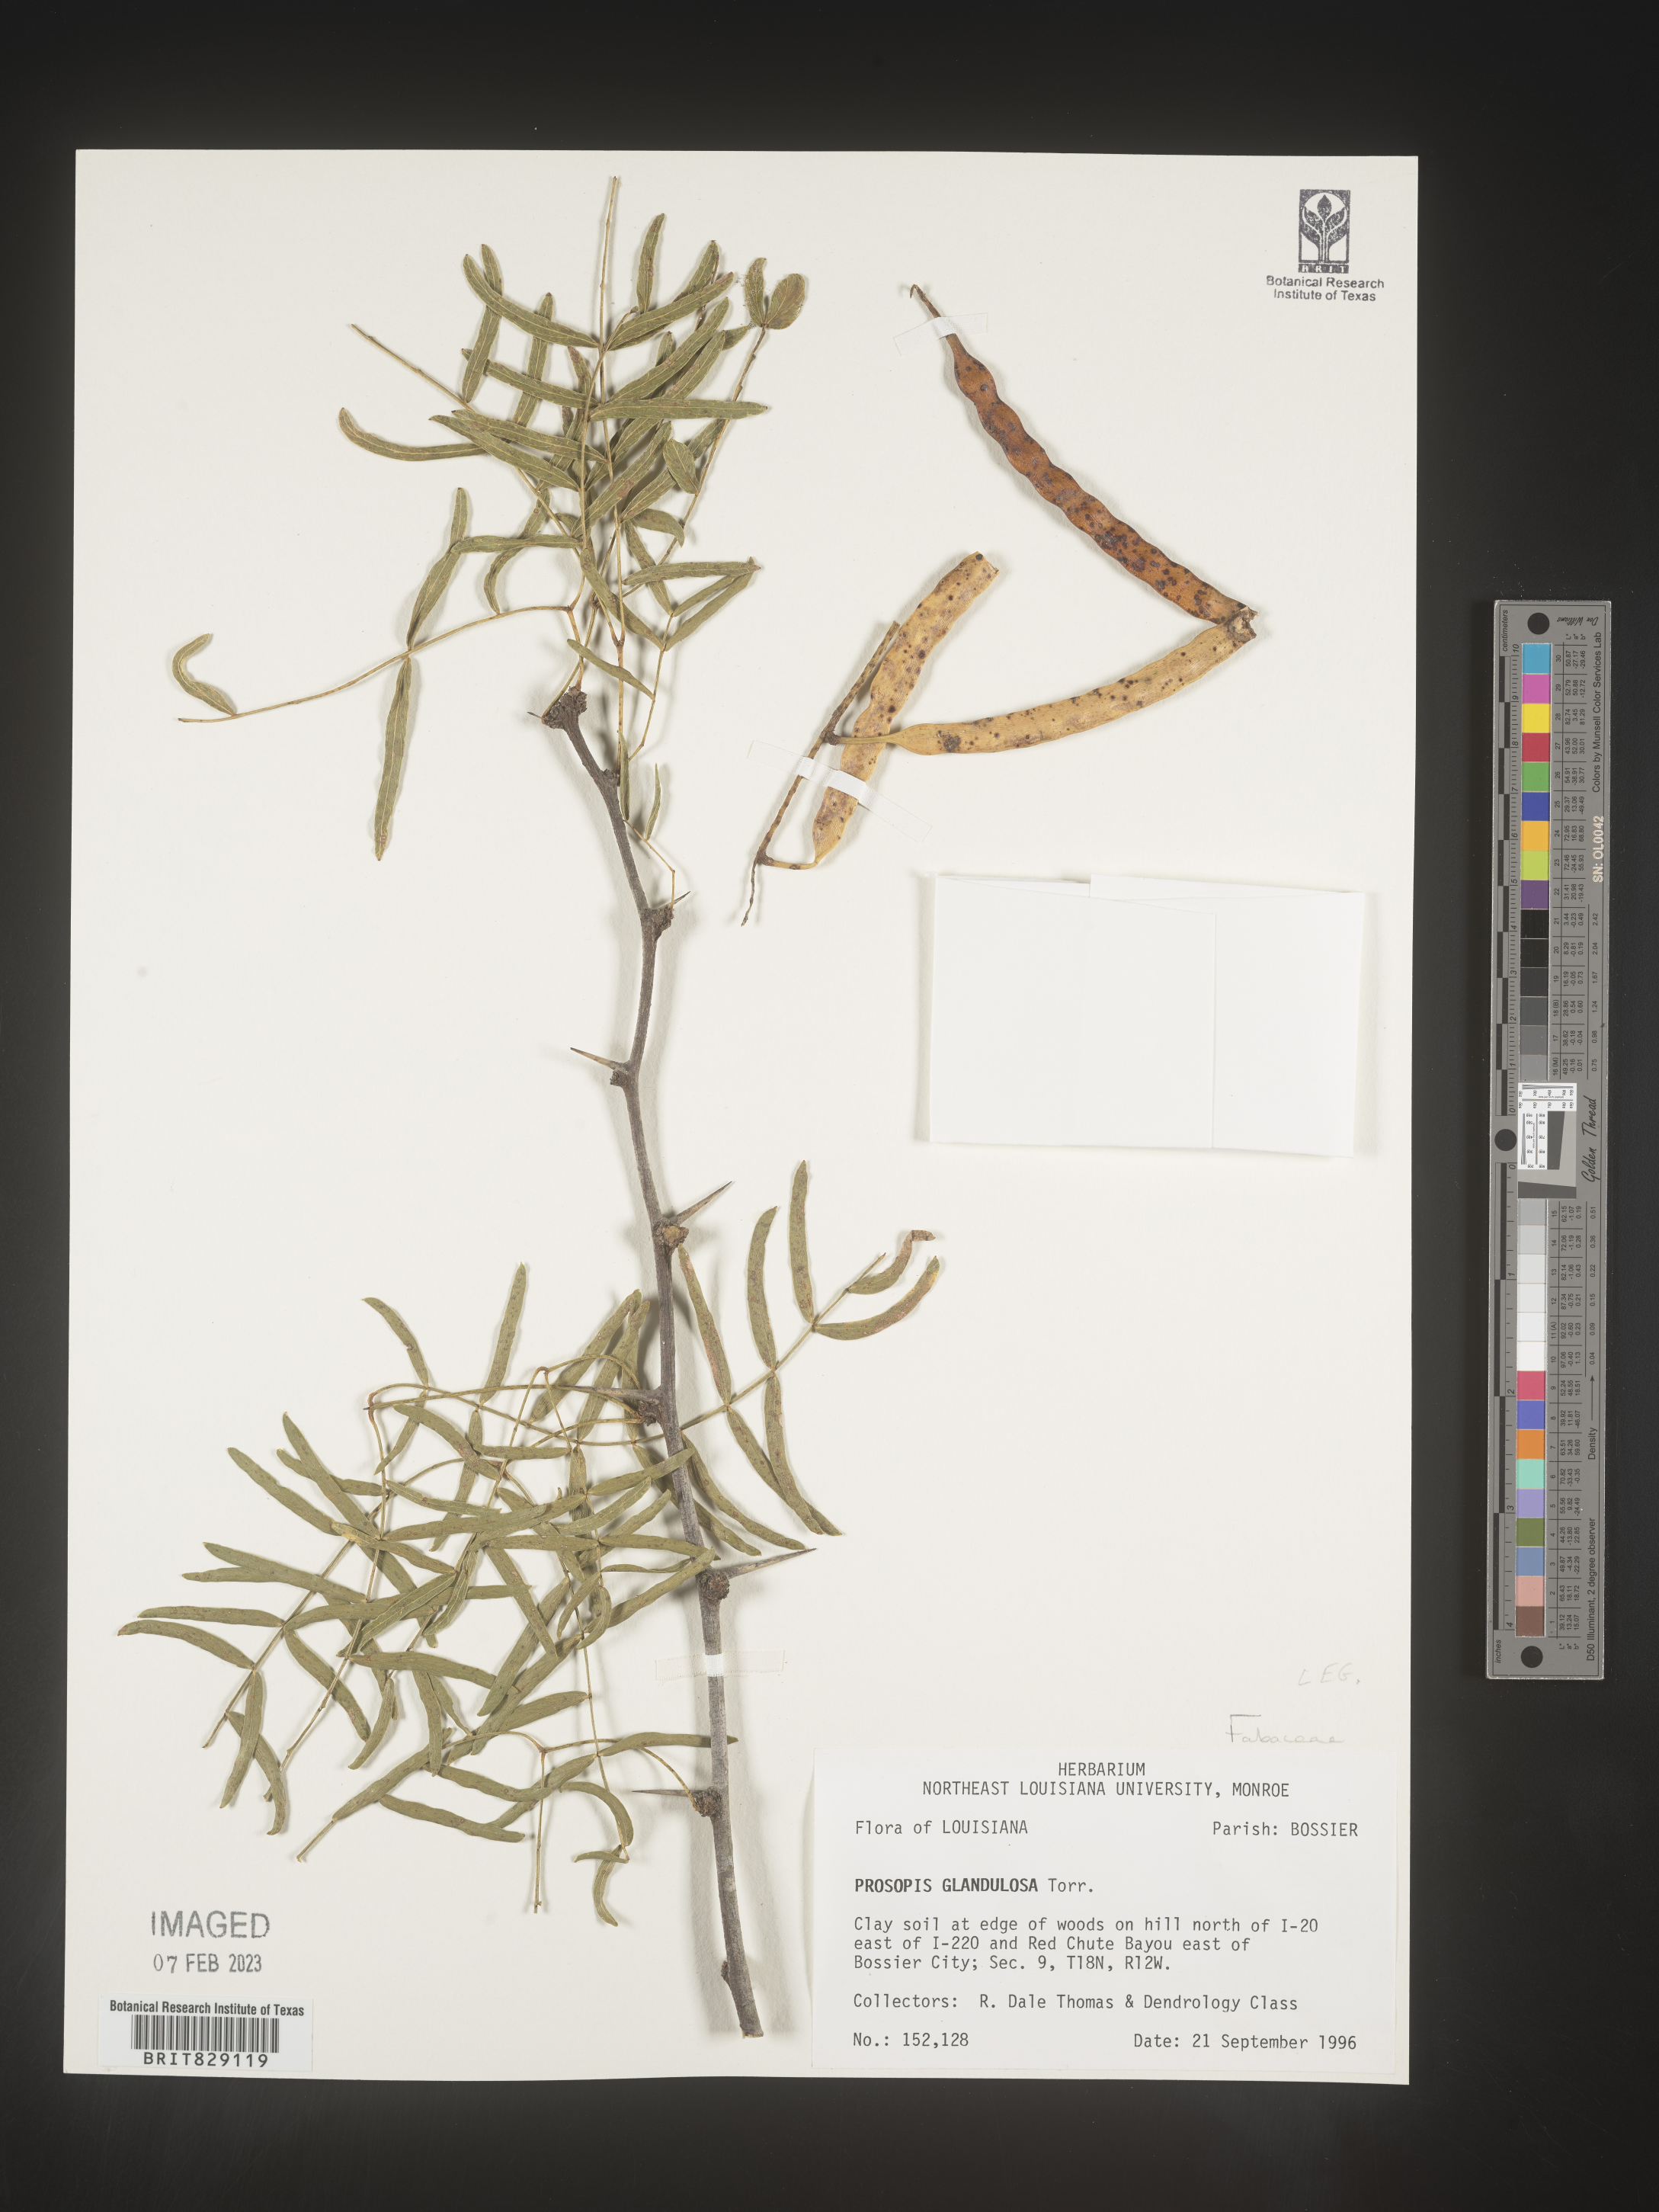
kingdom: Plantae
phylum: Tracheophyta
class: Magnoliopsida
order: Fabales
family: Fabaceae
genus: Prosopis
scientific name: Prosopis glandulosa
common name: Honey mesquite
